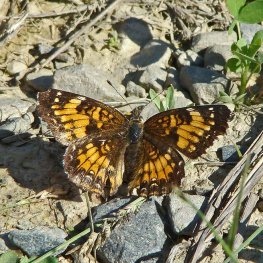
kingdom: Animalia
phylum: Arthropoda
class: Insecta
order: Lepidoptera
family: Nymphalidae
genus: Chlosyne
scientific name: Chlosyne harrisii
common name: Harris's Checkerspot
